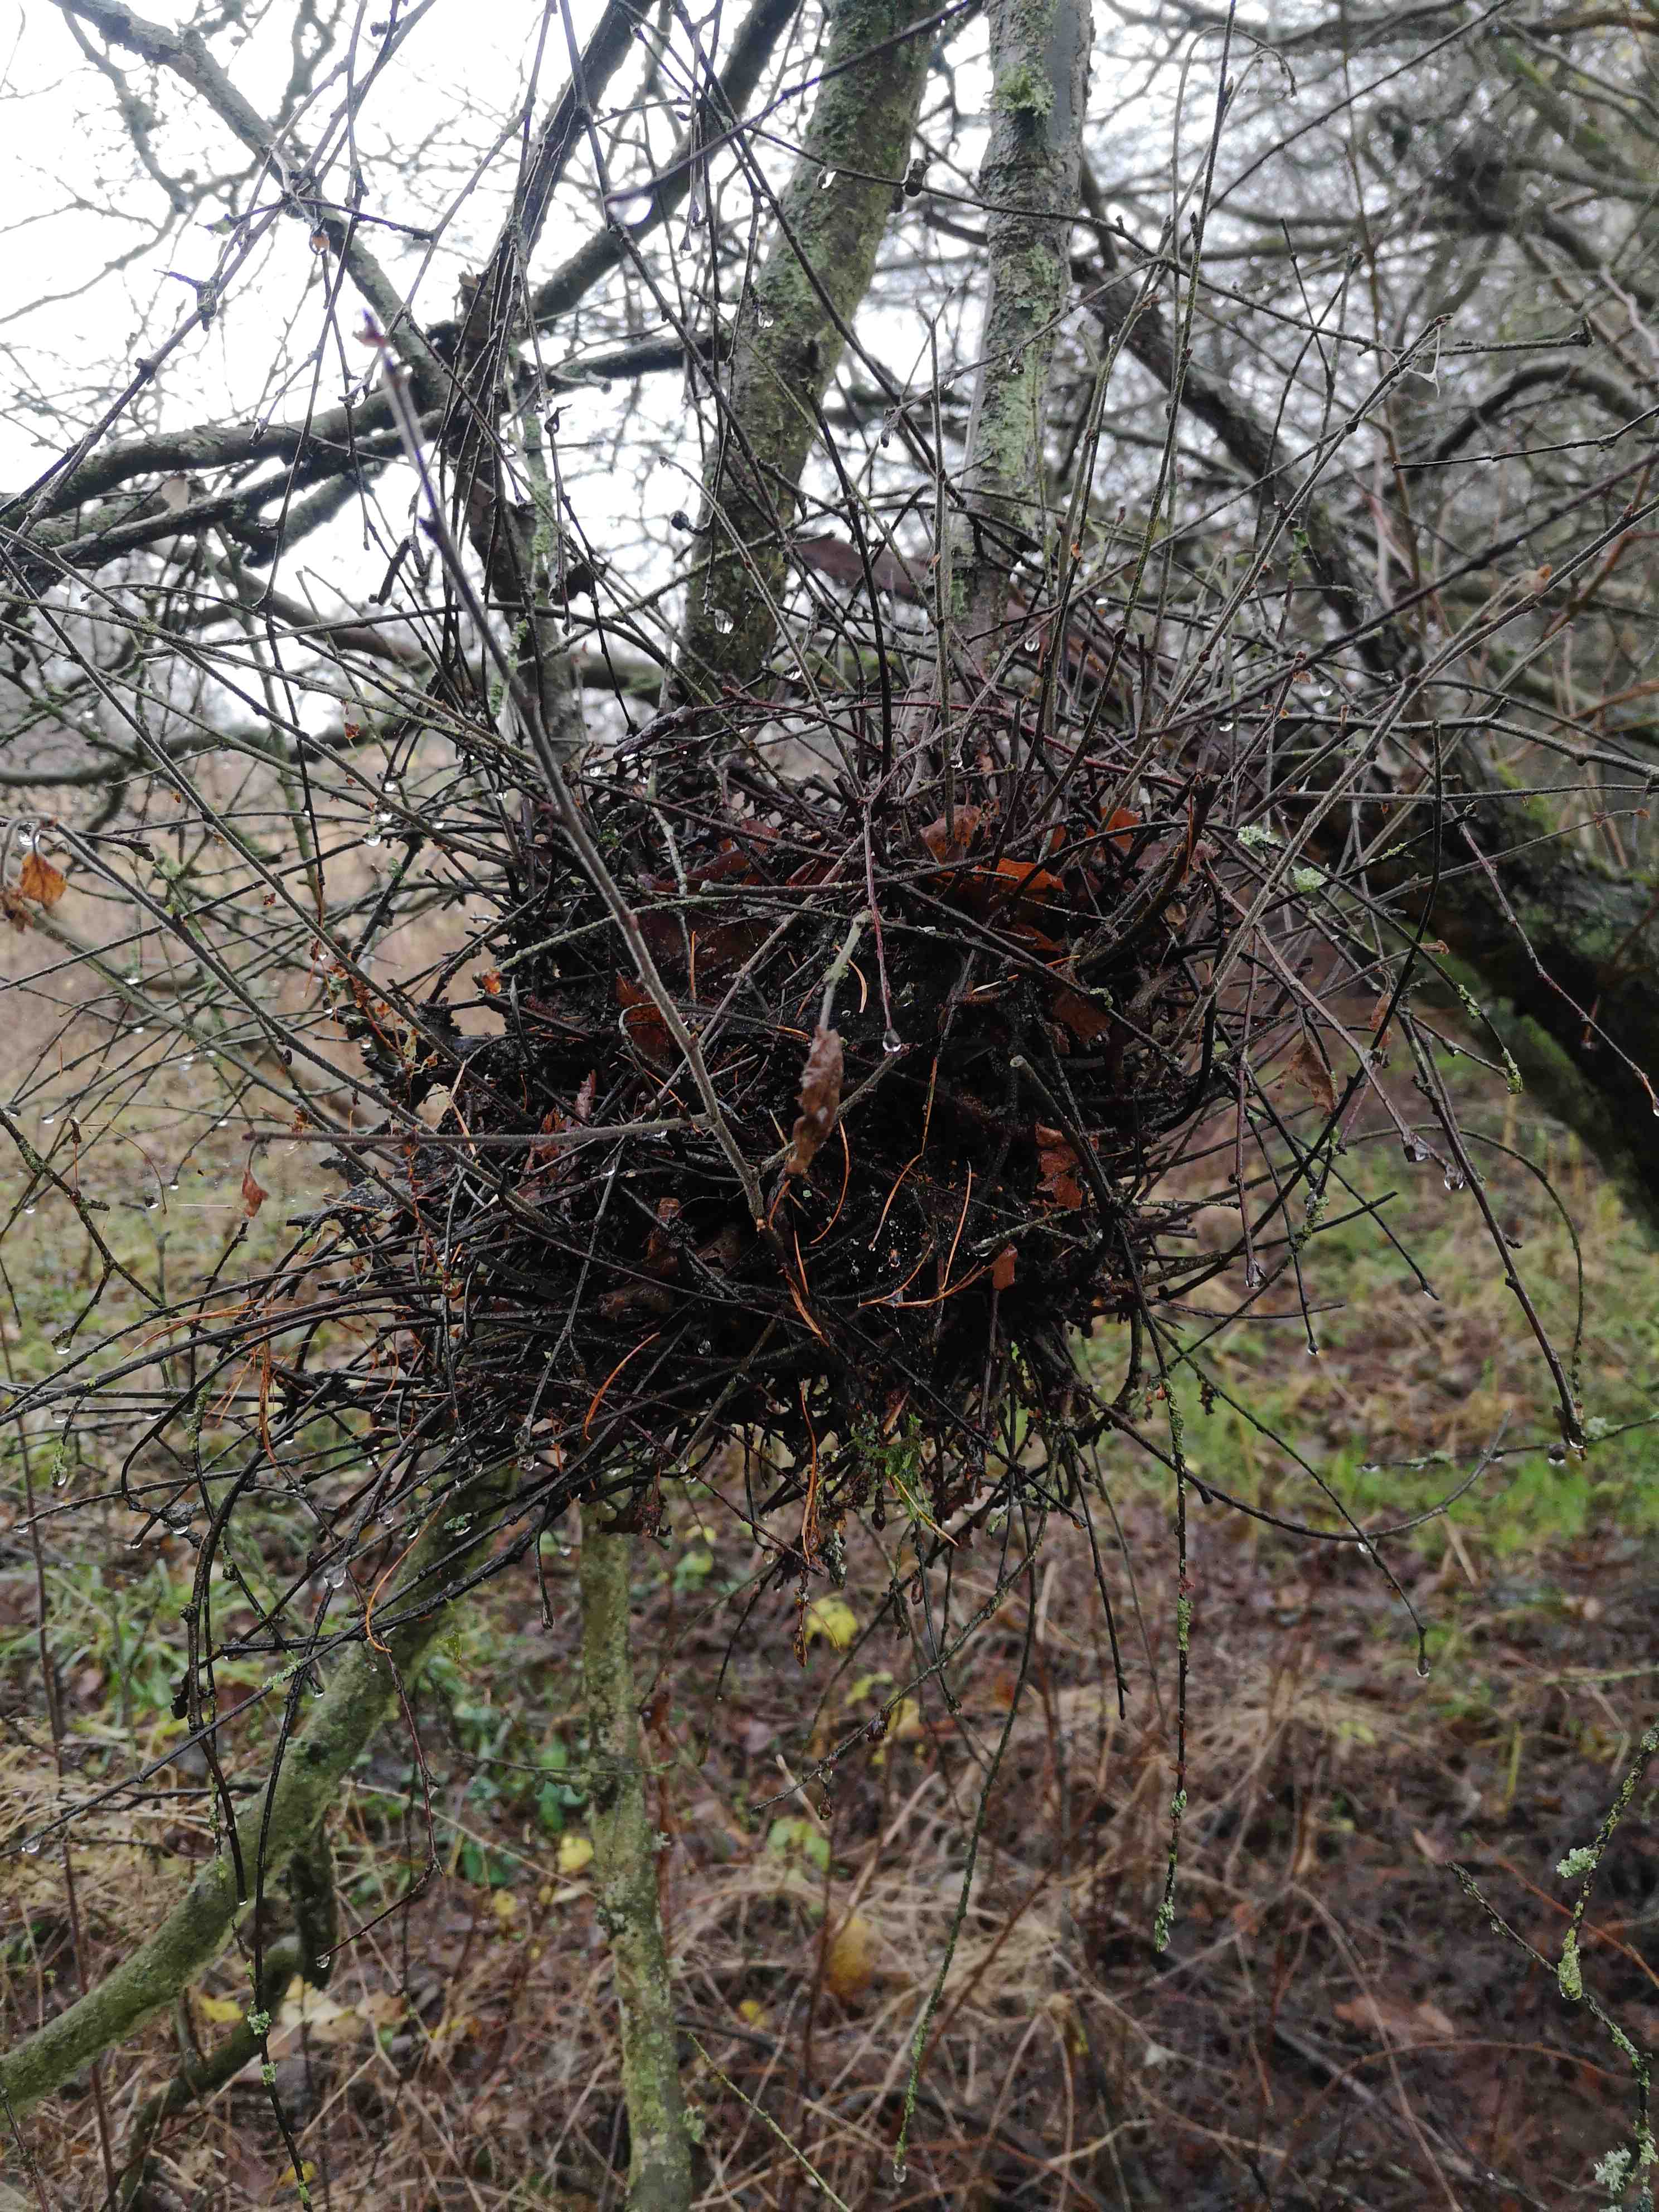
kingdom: Fungi
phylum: Ascomycota
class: Taphrinomycetes
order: Taphrinales
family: Taphrinaceae
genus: Taphrina
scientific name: Taphrina betulina
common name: hekse-sækdug
